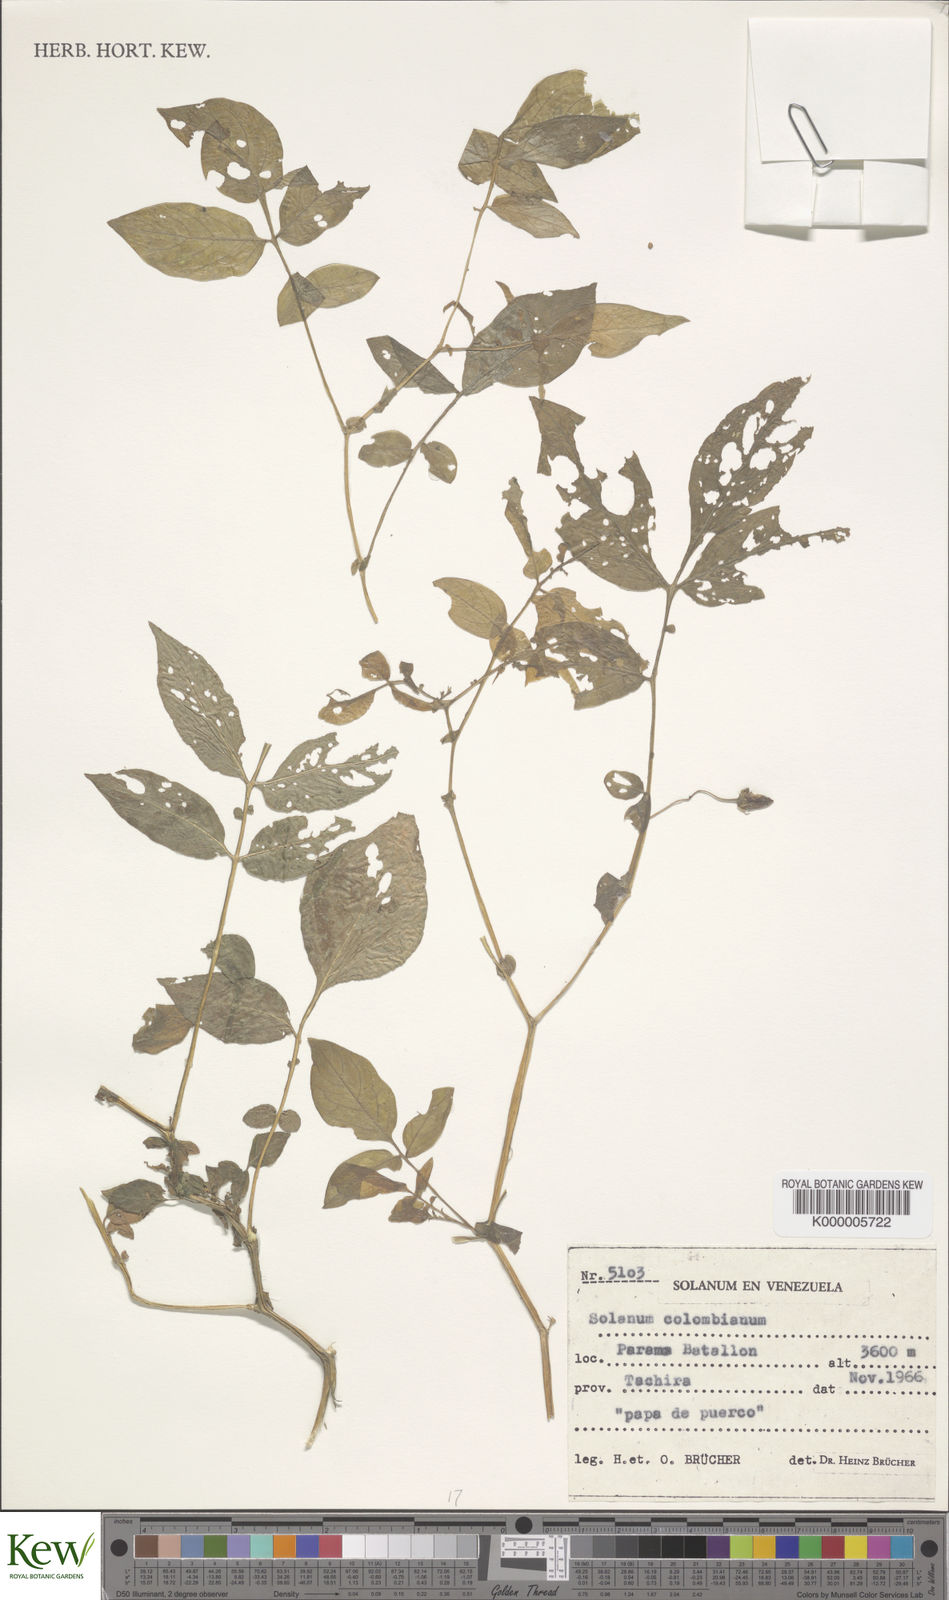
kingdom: Plantae
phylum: Tracheophyta
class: Magnoliopsida
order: Solanales
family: Solanaceae
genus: Solanum
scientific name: Solanum colombianum
